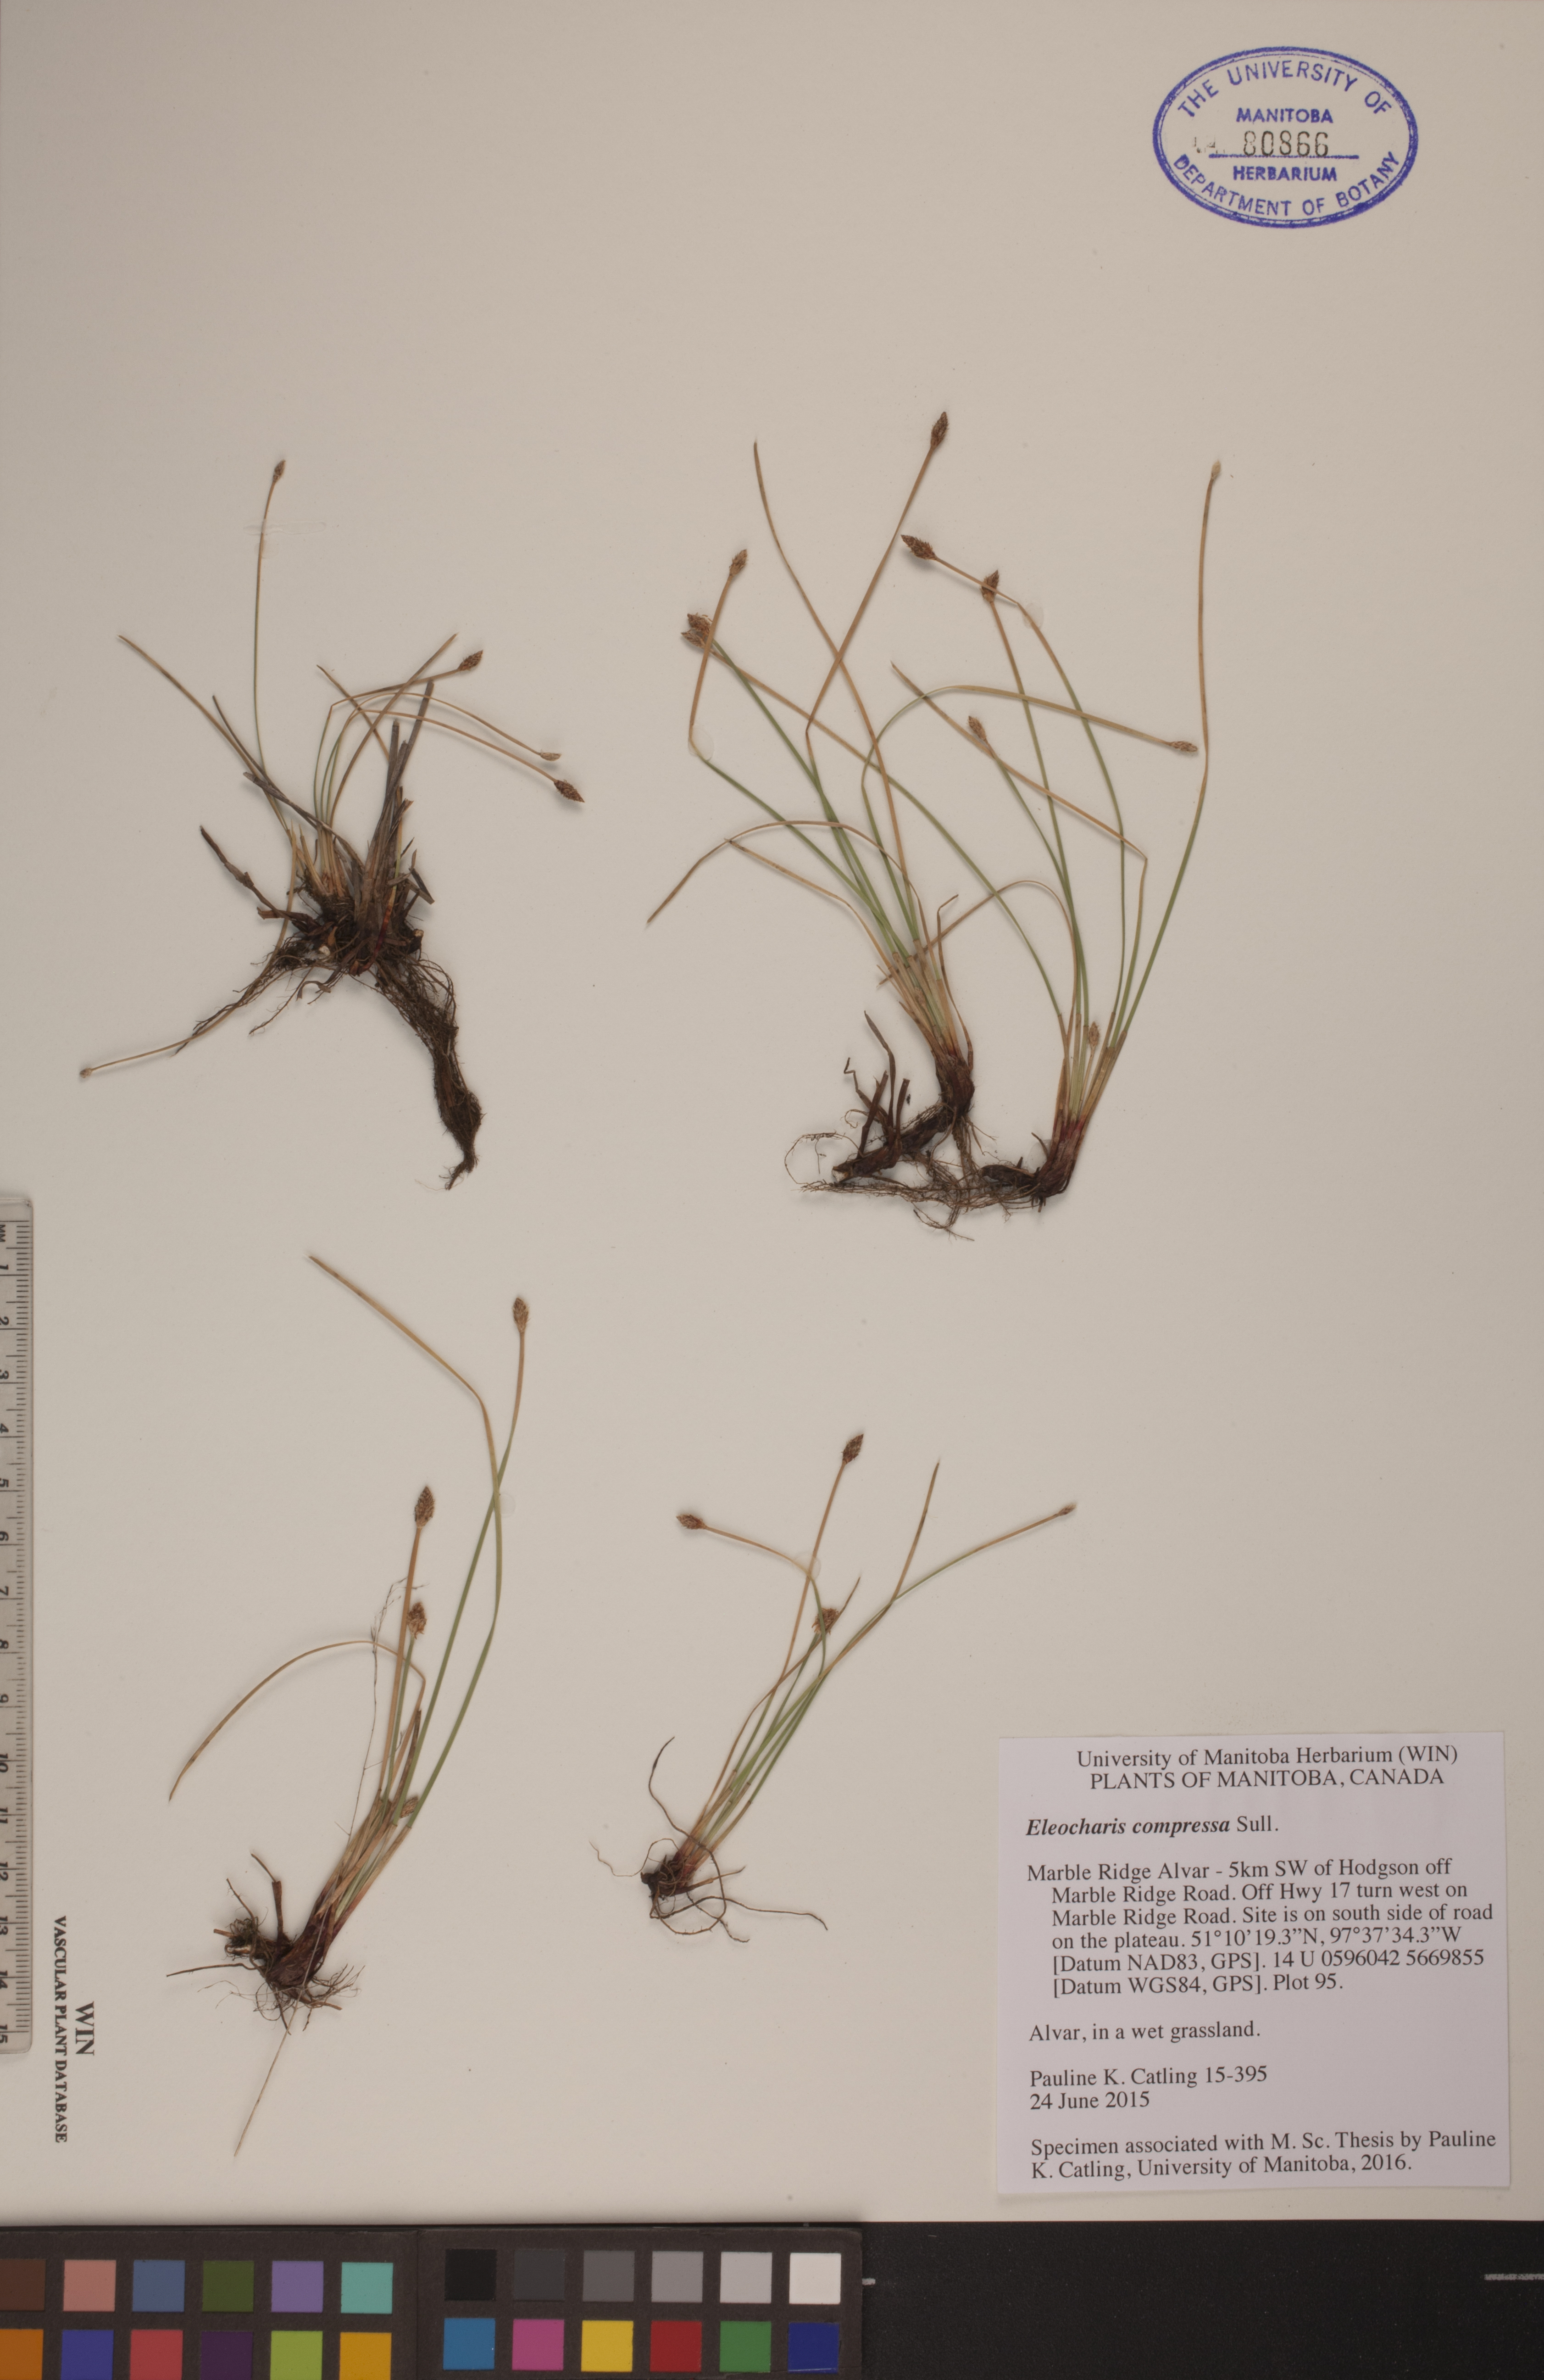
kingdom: Plantae
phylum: Tracheophyta
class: Liliopsida
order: Poales
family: Cyperaceae
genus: Eleocharis
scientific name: Eleocharis compressa
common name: Flat-stem spike-rush
